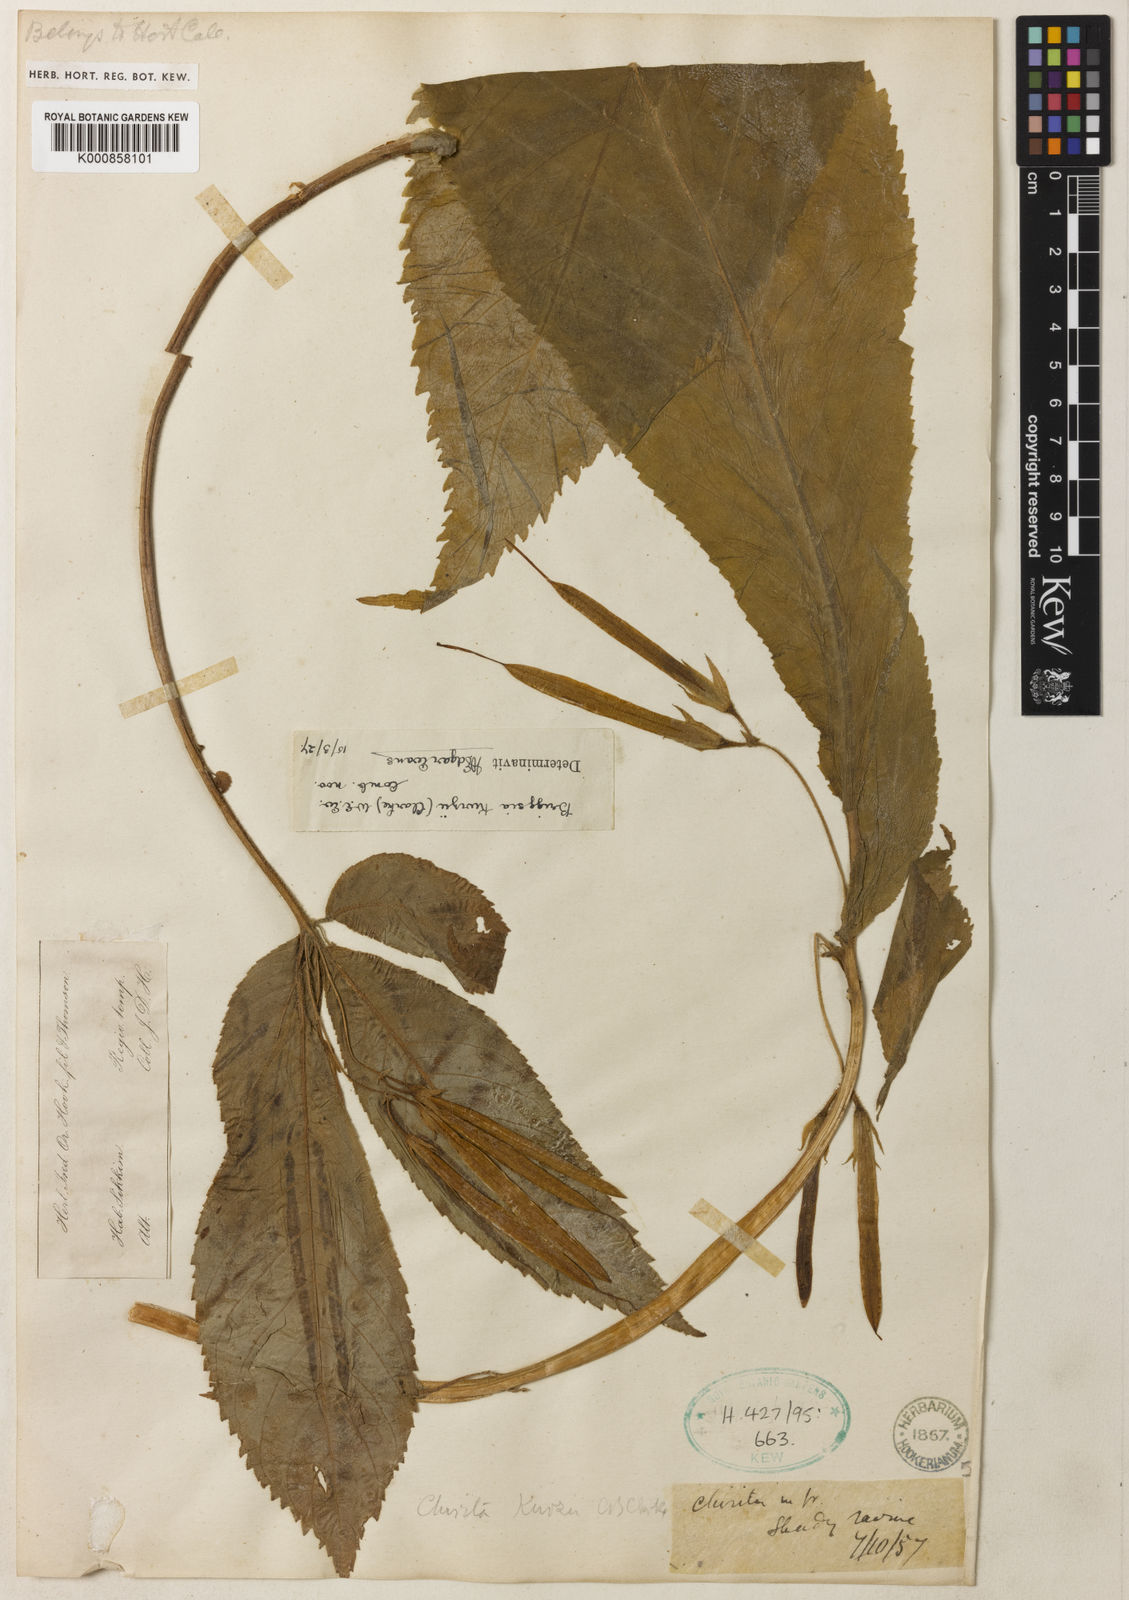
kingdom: Plantae
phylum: Tracheophyta
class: Magnoliopsida
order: Lamiales
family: Gesneriaceae
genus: Loxostigma
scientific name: Loxostigma kurzii
